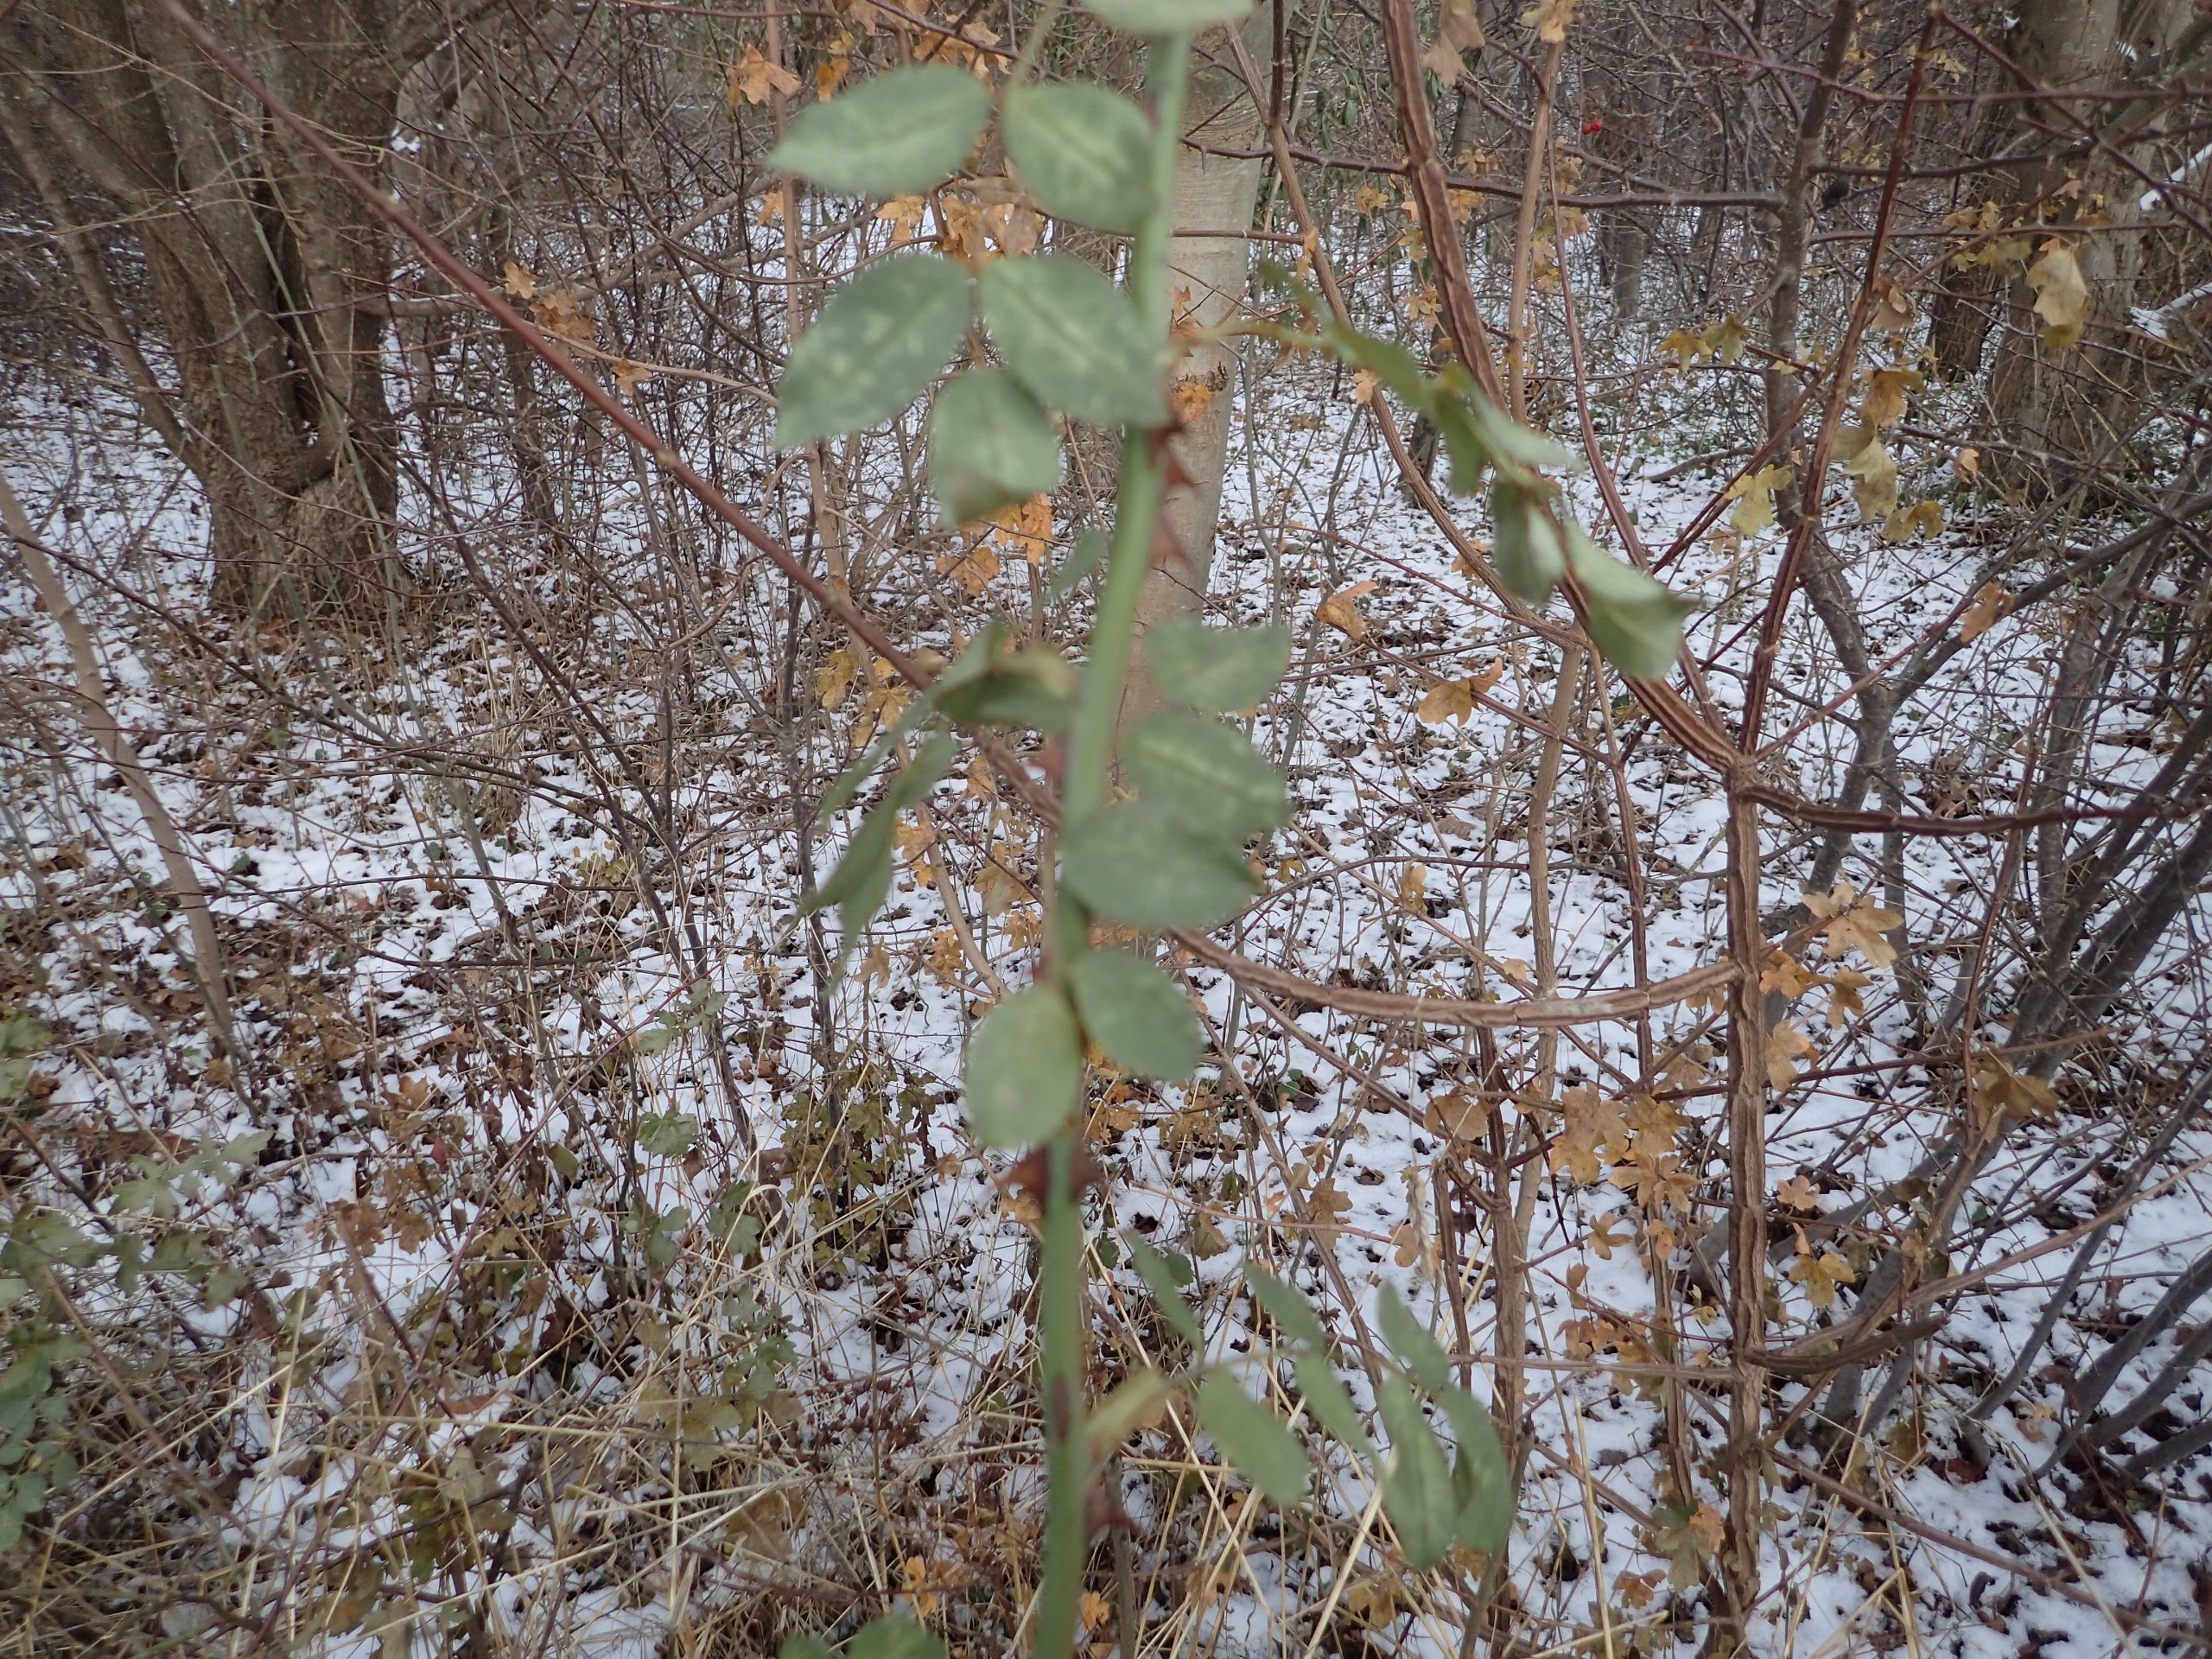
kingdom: Plantae
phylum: Tracheophyta
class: Magnoliopsida
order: Sapindales
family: Sapindaceae
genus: Acer
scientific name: Acer campestre
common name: Navr
